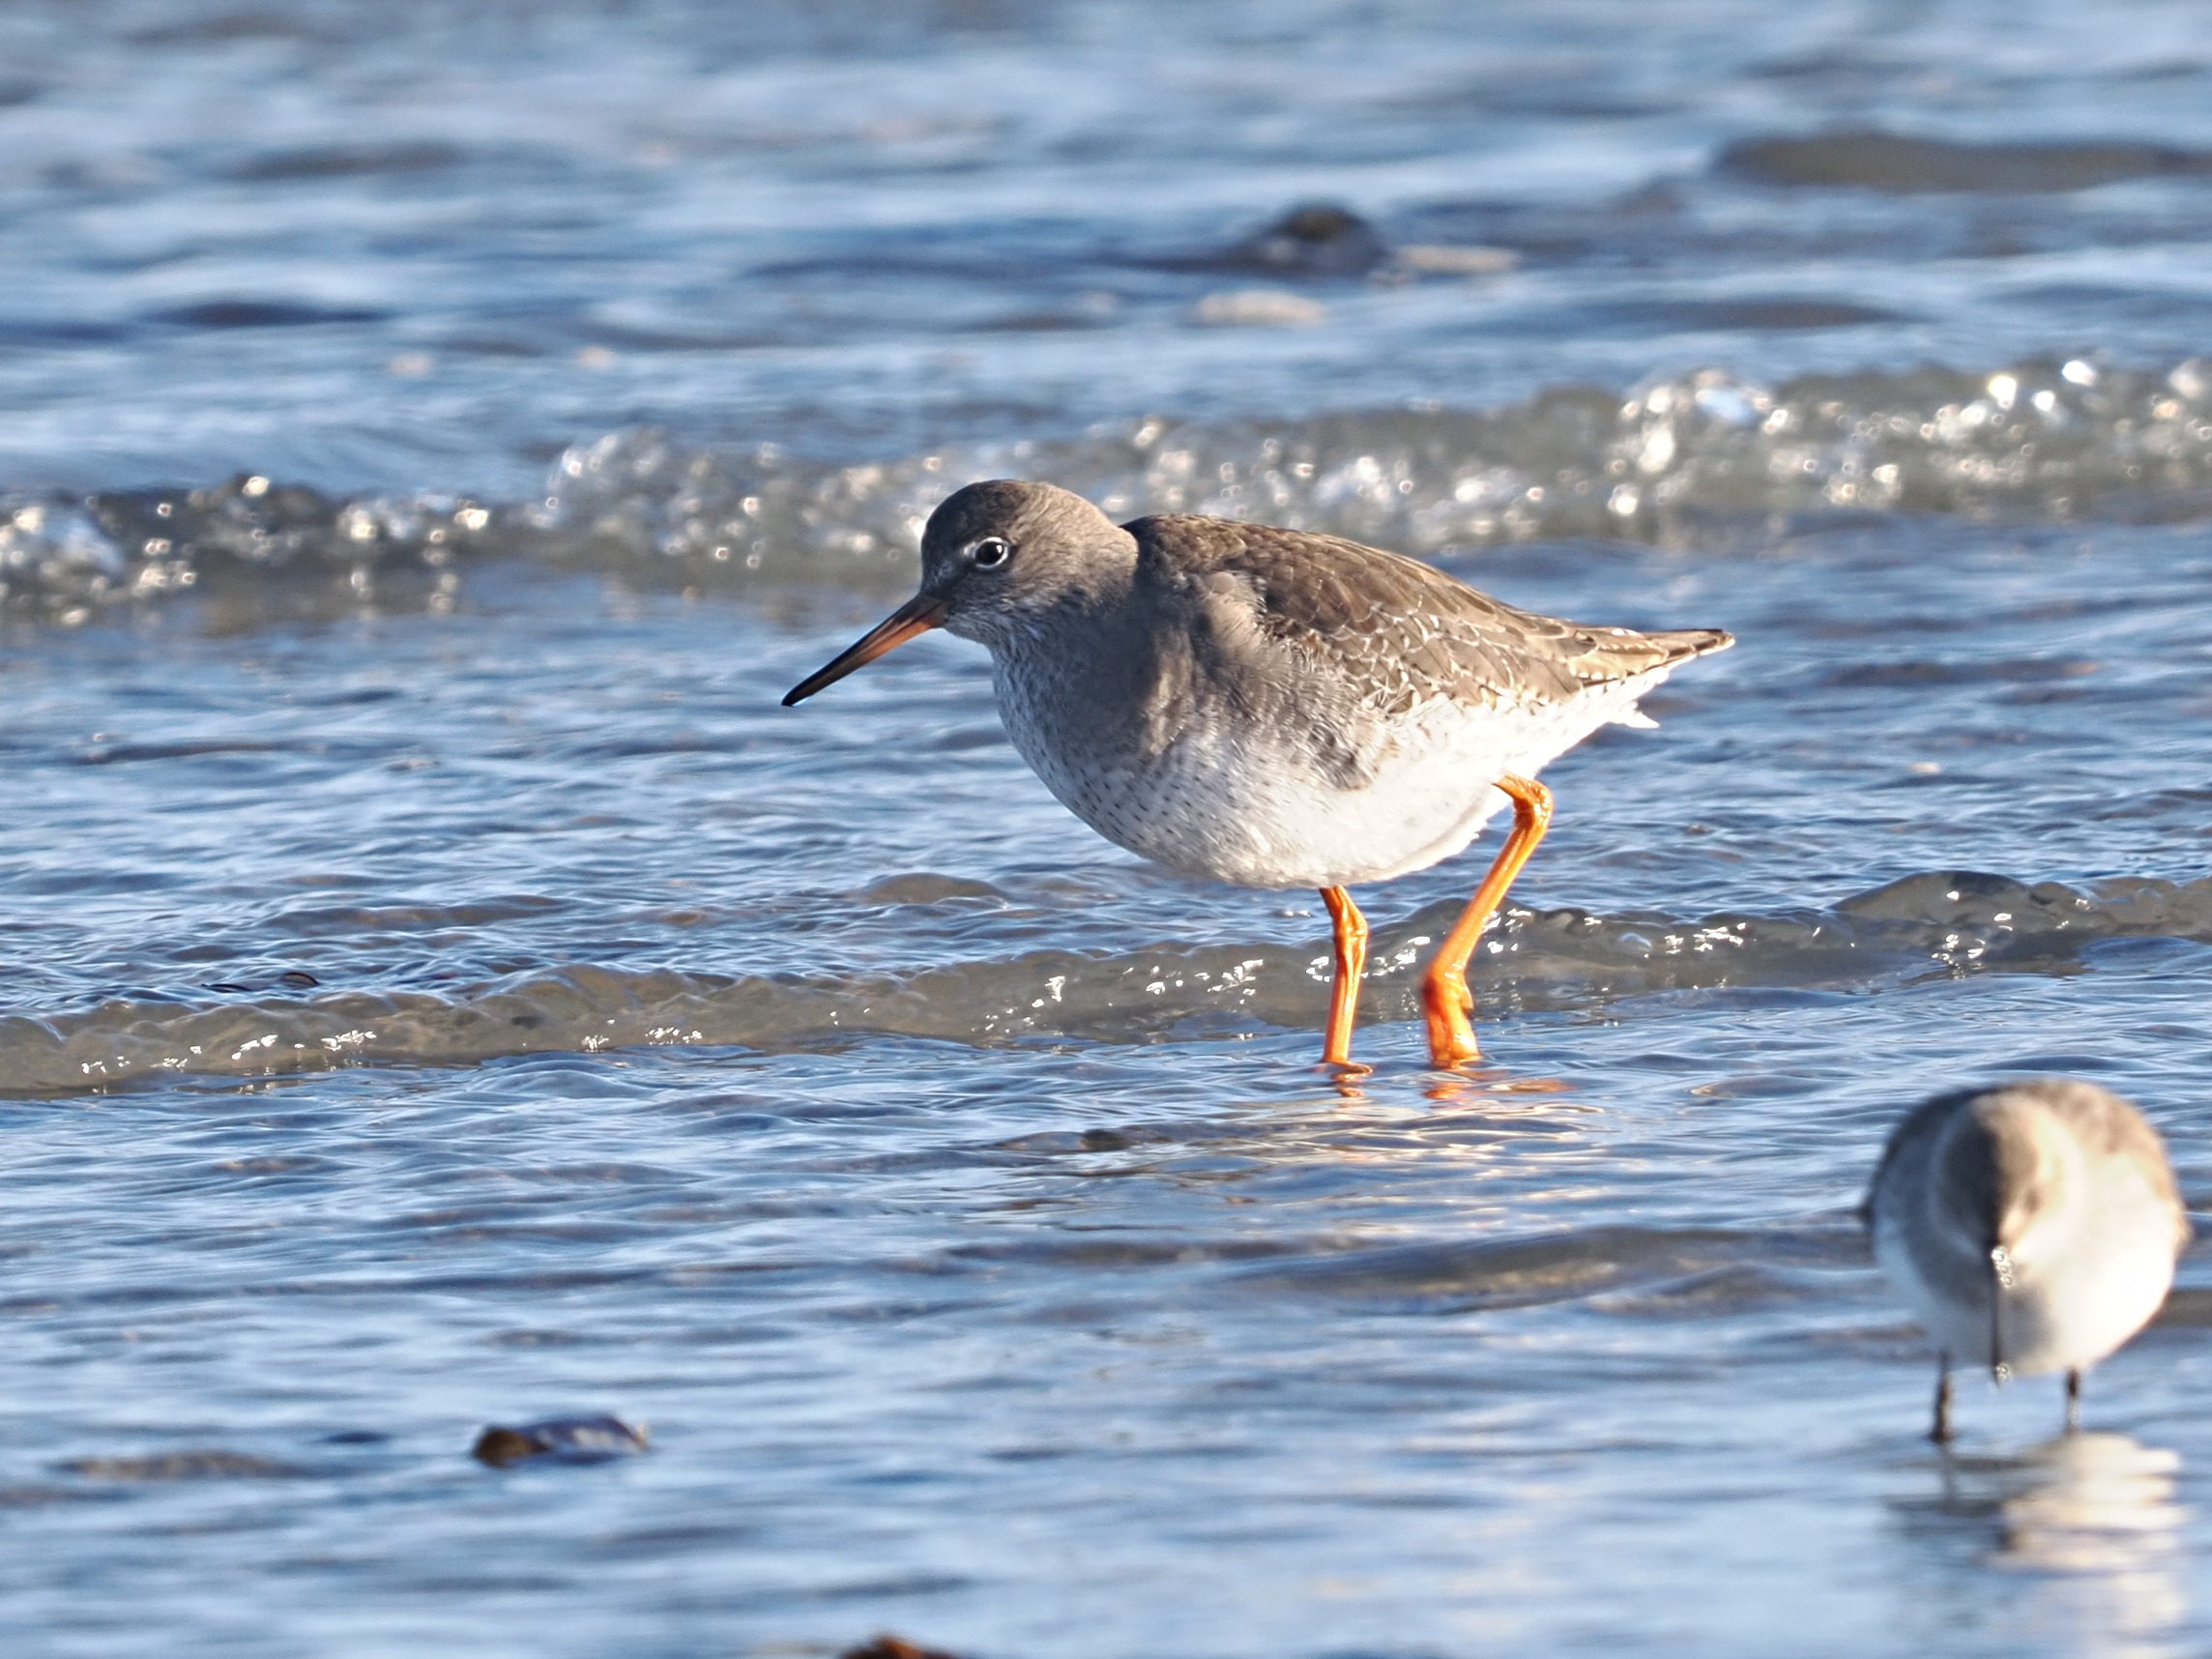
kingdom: Animalia
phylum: Chordata
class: Aves
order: Charadriiformes
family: Scolopacidae
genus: Tringa
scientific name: Tringa totanus
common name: Rødben
